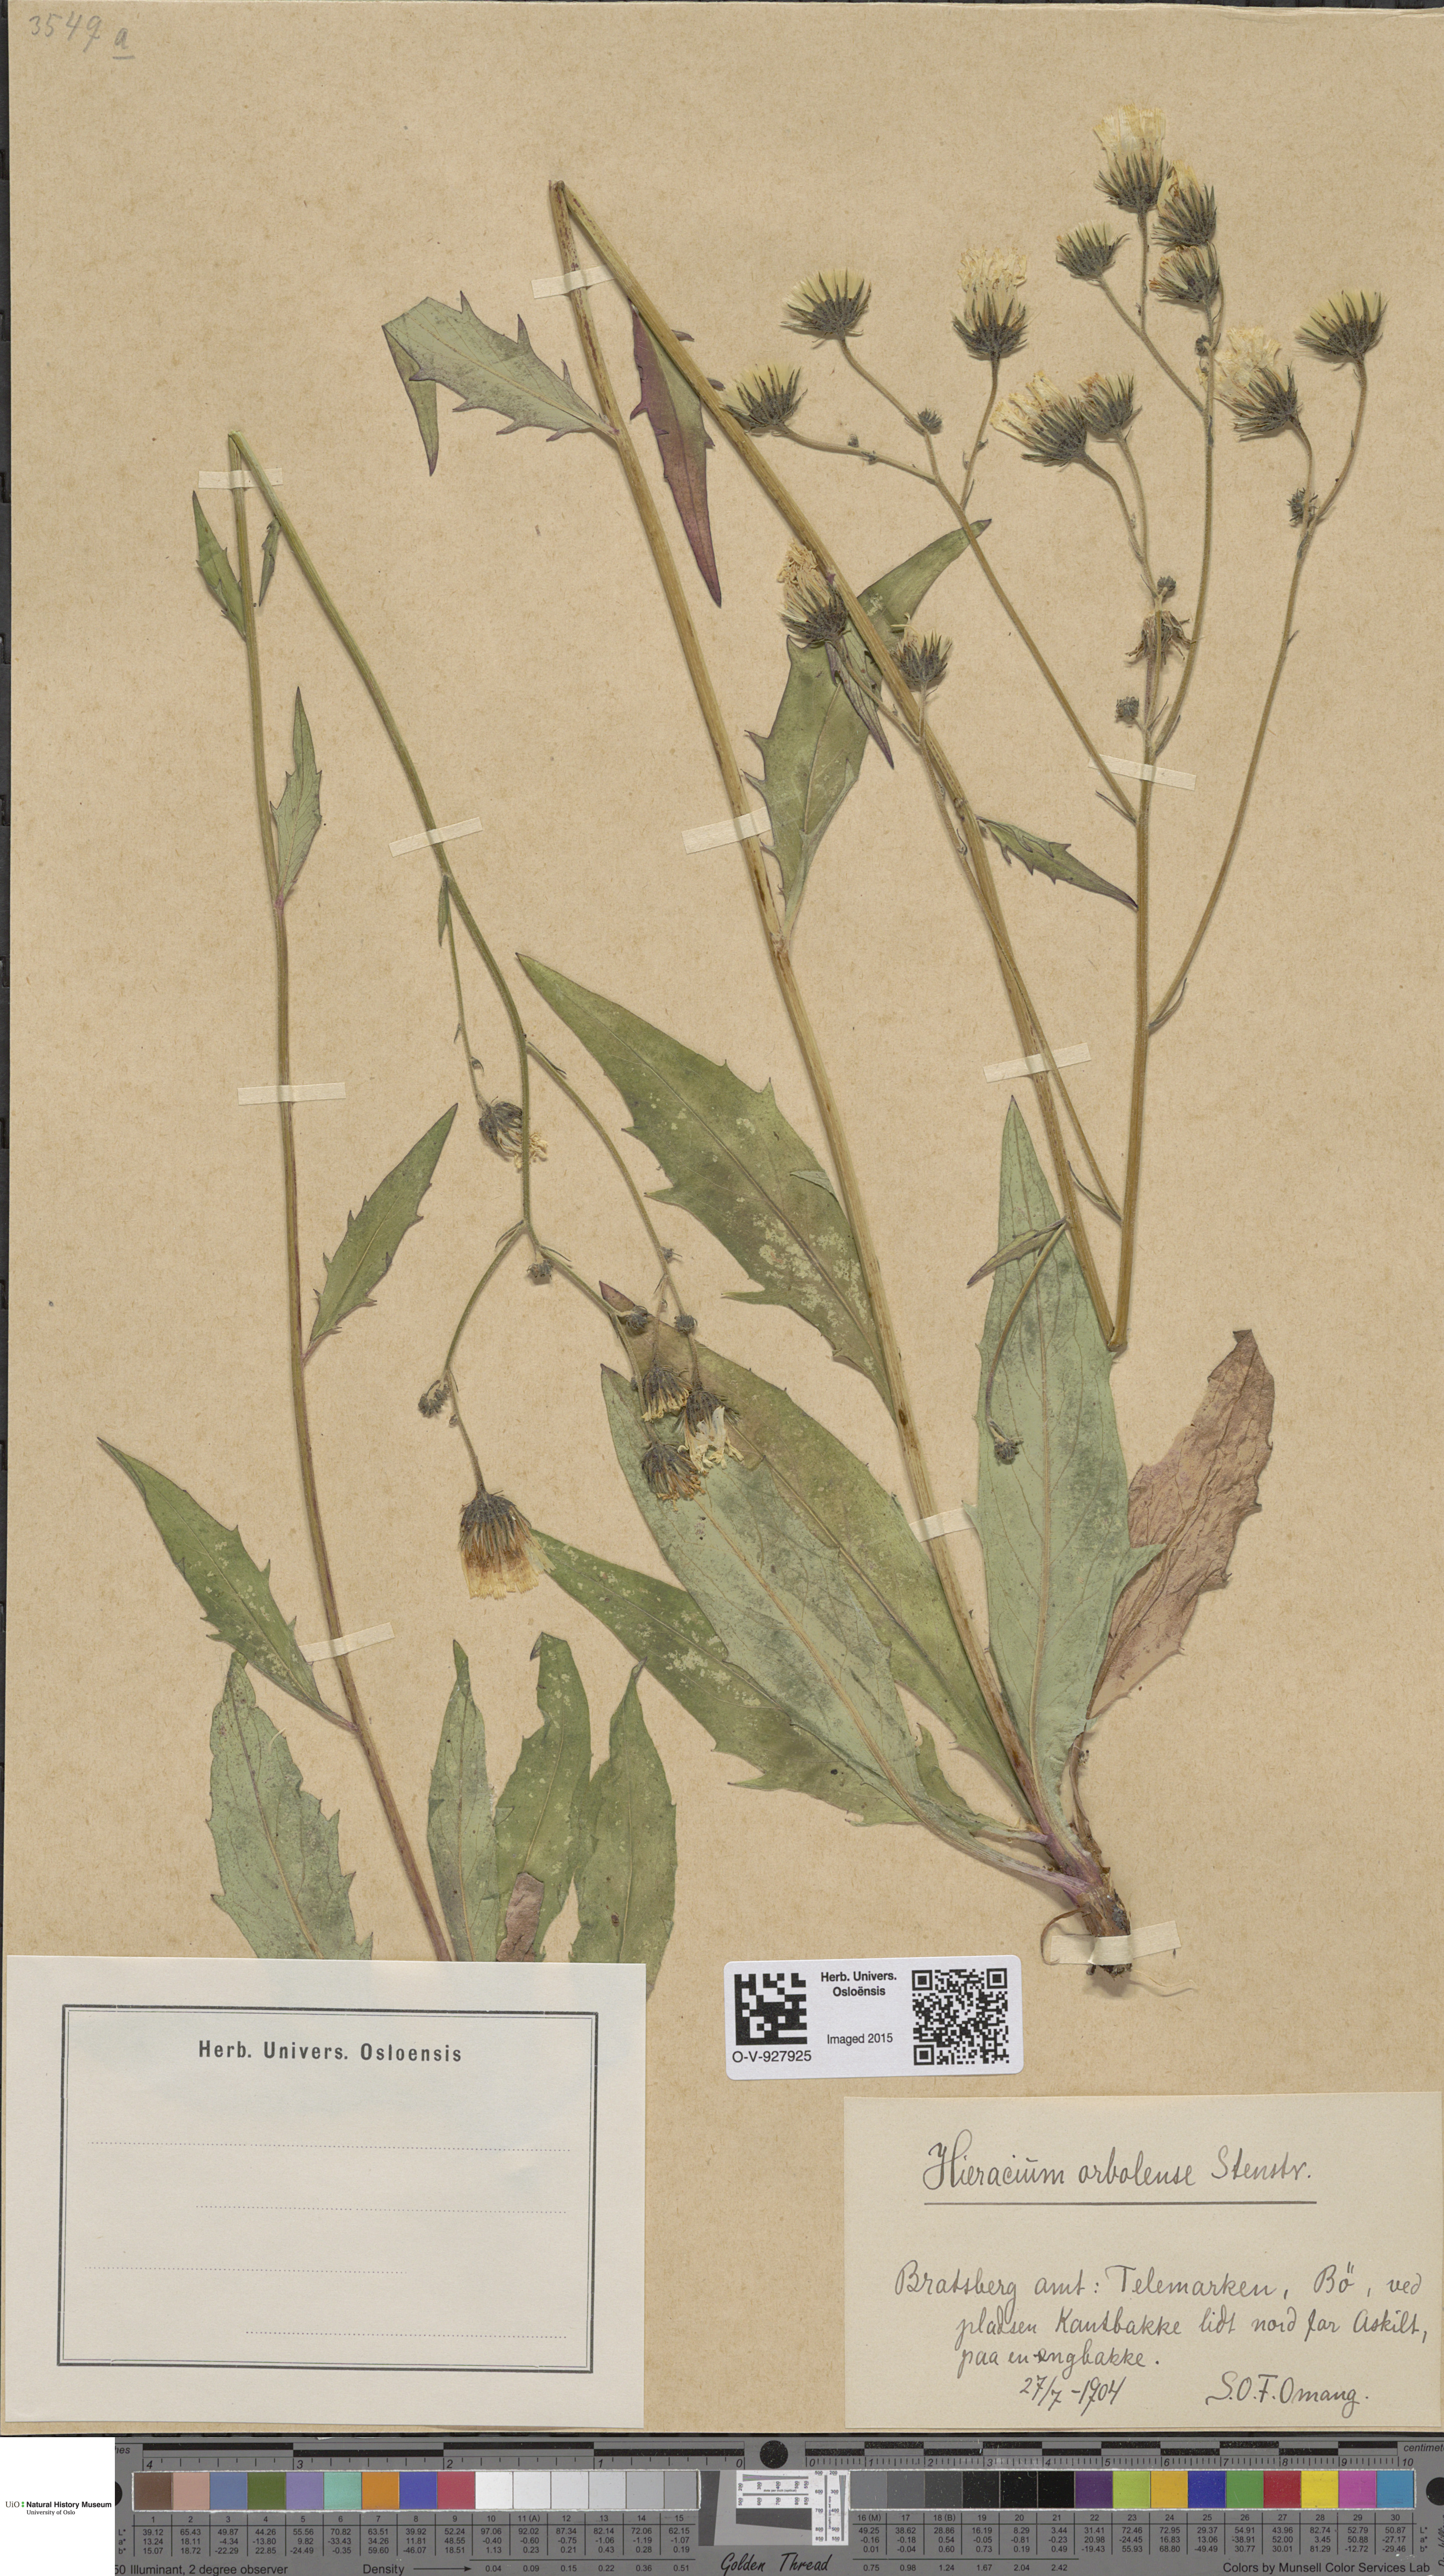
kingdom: Plantae
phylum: Tracheophyta
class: Magnoliopsida
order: Asterales
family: Asteraceae
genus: Hieracium
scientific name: Hieracium orbolense
